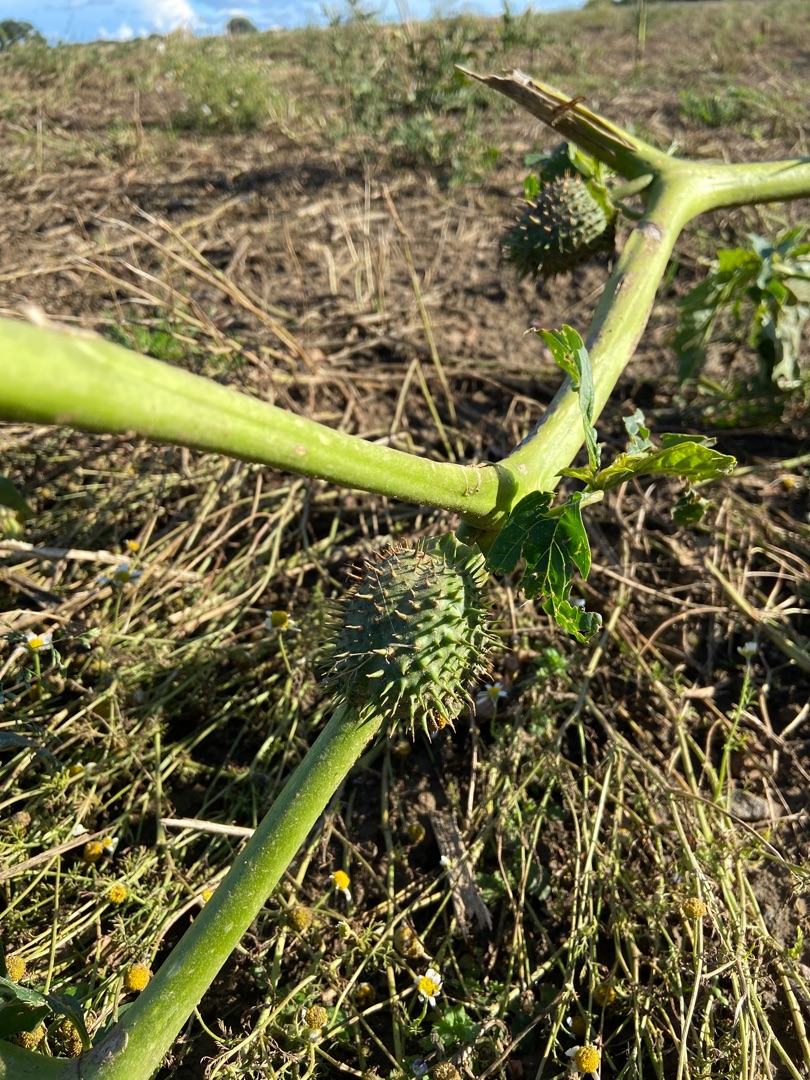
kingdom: Plantae
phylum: Tracheophyta
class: Magnoliopsida
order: Solanales
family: Solanaceae
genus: Datura
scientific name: Datura stramonium
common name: Pigæble
